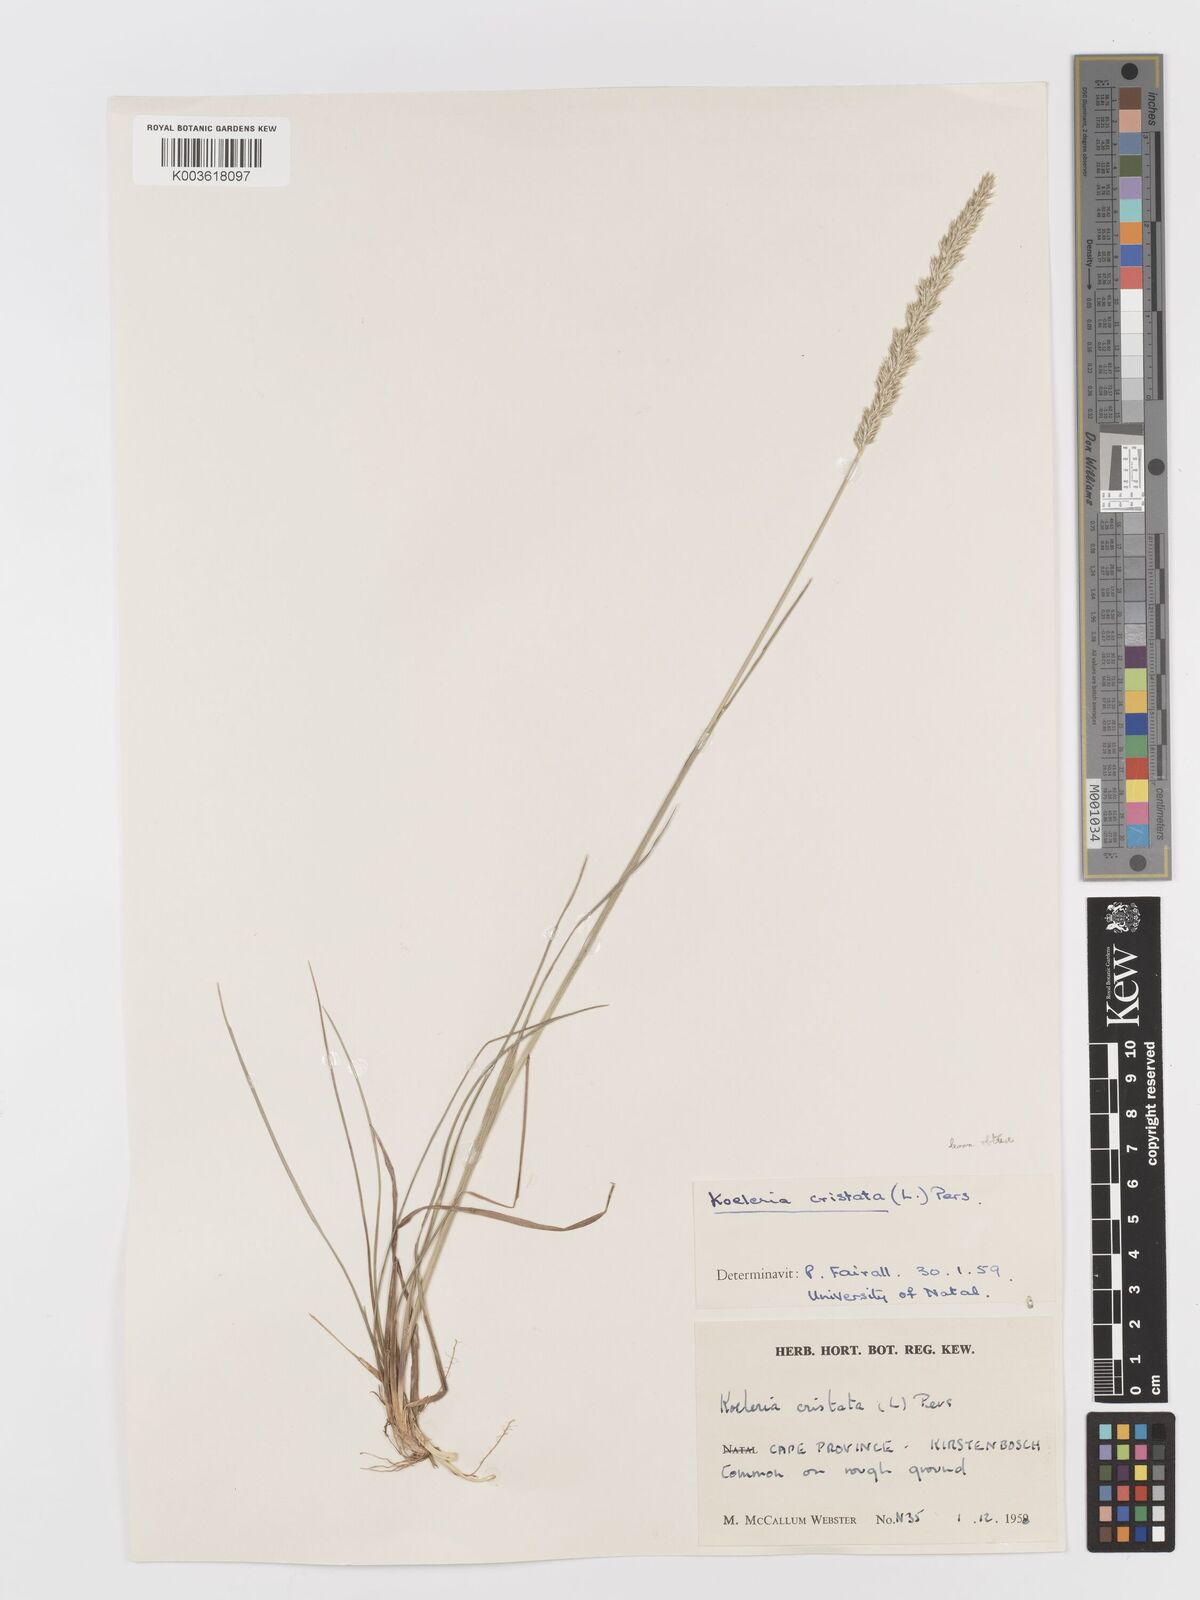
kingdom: Plantae
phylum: Tracheophyta
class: Liliopsida
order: Poales
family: Poaceae
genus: Koeleria
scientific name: Koeleria capensis
